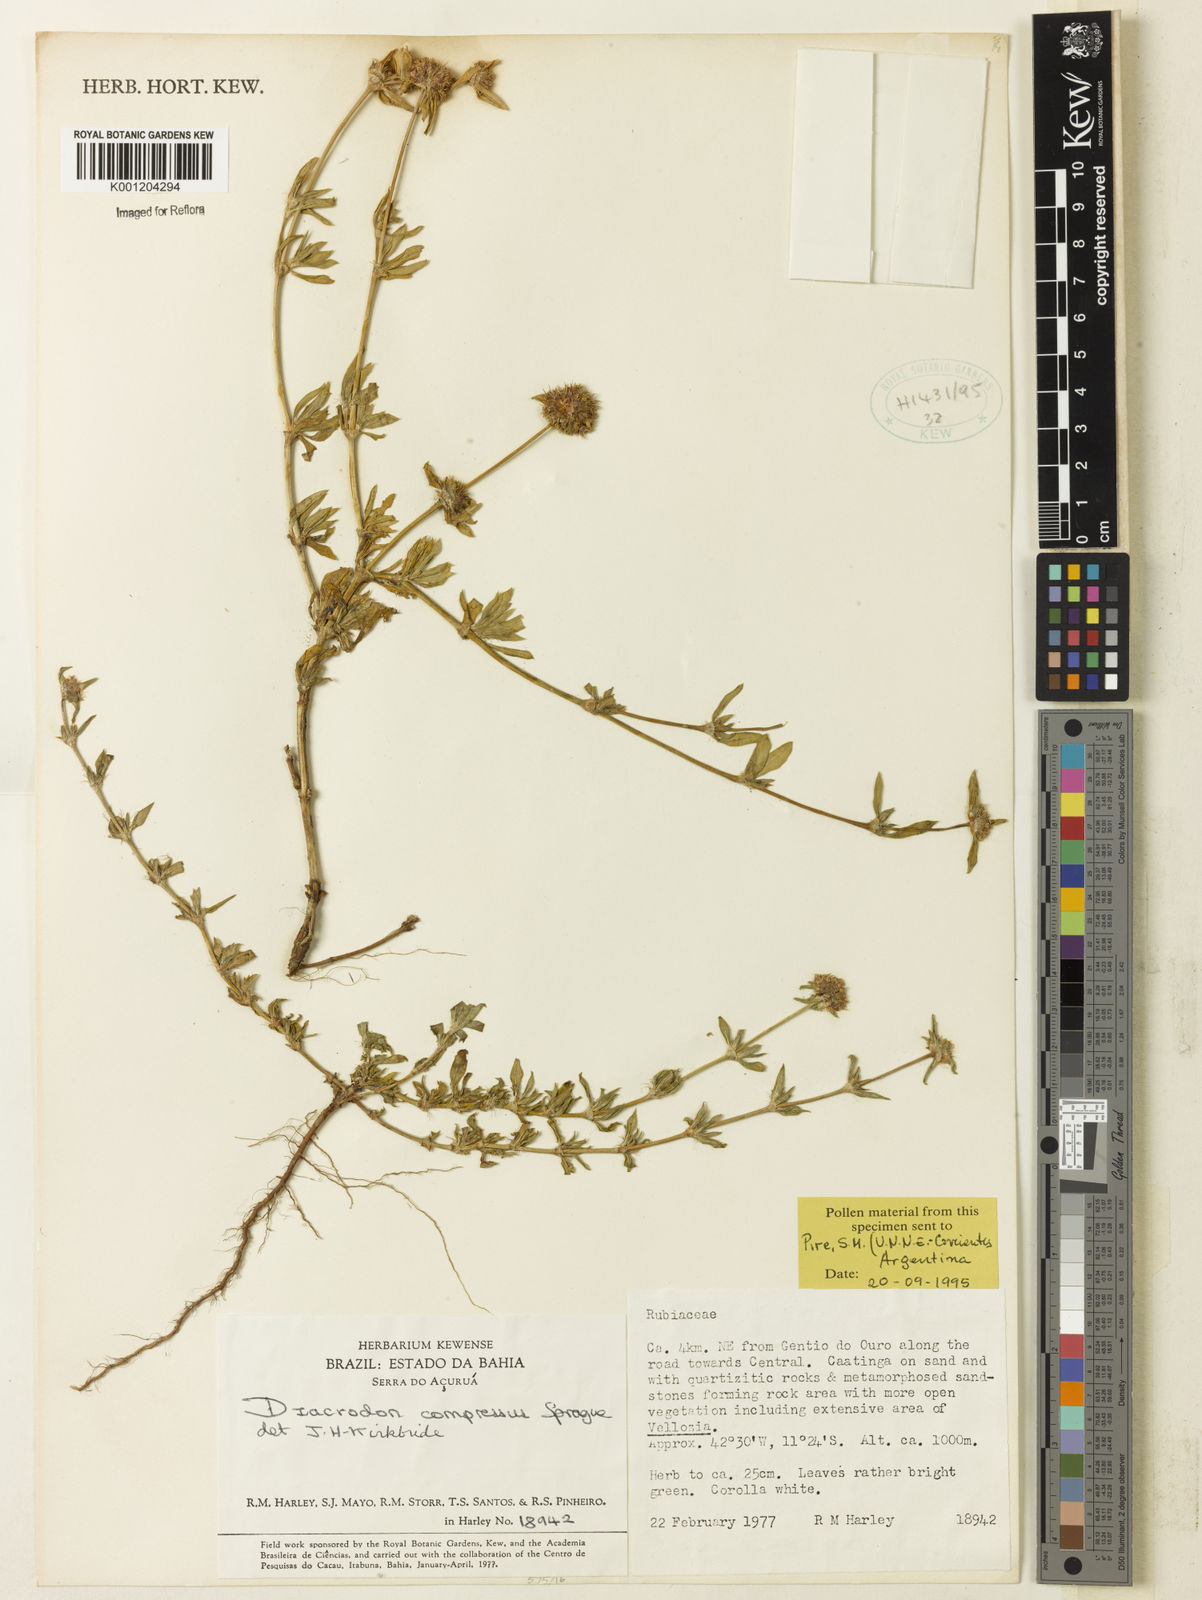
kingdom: Plantae
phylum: Tracheophyta
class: Magnoliopsida
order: Gentianales
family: Rubiaceae
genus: Diacrodon
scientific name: Diacrodon compressus
